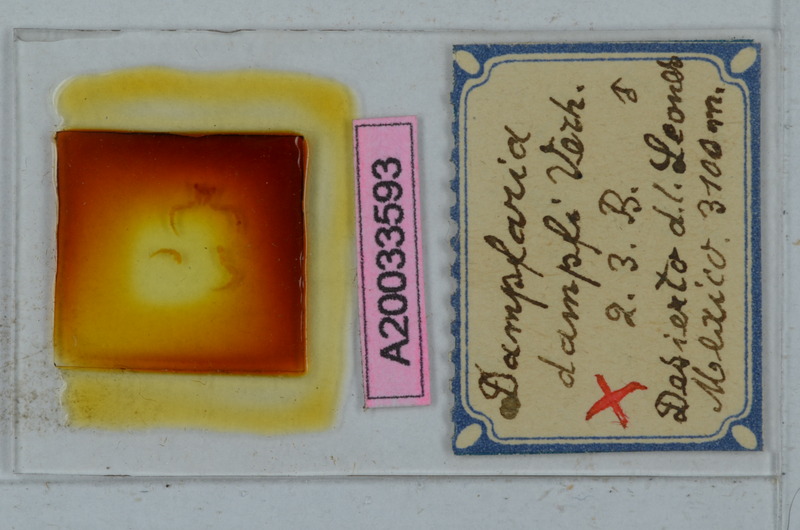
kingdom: Animalia
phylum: Arthropoda
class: Diplopoda
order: Polydesmida
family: Xystodesmidae
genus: Rhysodesmus
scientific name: Rhysodesmus dampfi
